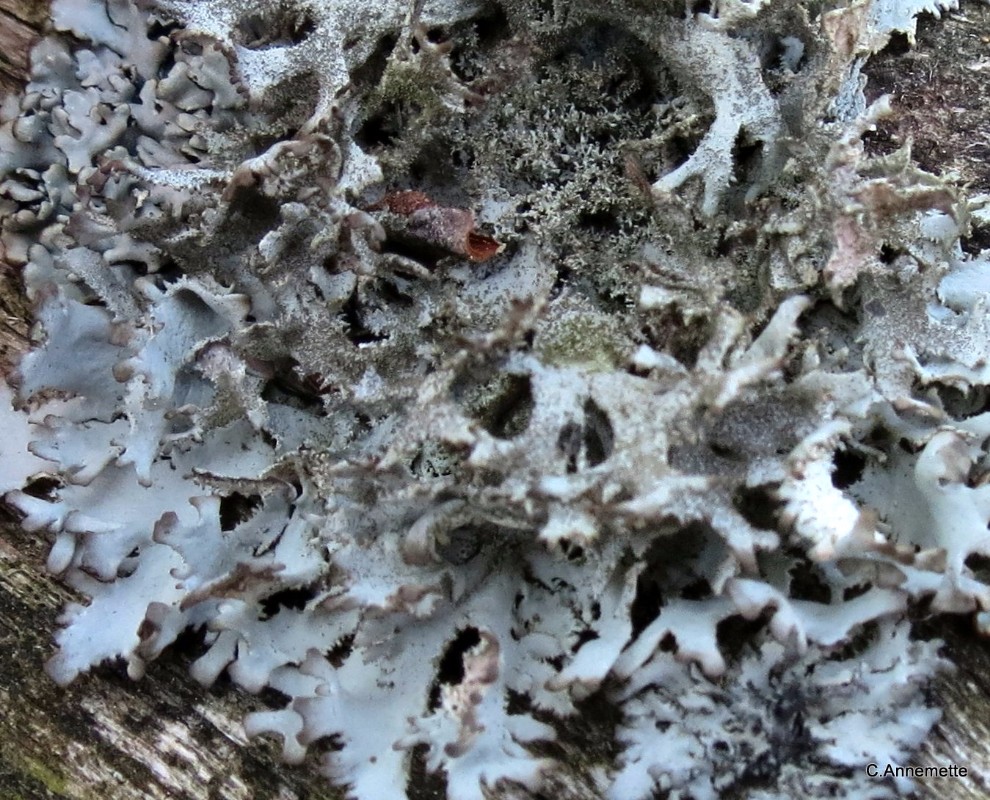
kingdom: Fungi
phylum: Ascomycota
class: Lecanoromycetes
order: Lecanorales
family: Parmeliaceae
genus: Pseudevernia
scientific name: Pseudevernia furfuracea
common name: grå fyrrelav
